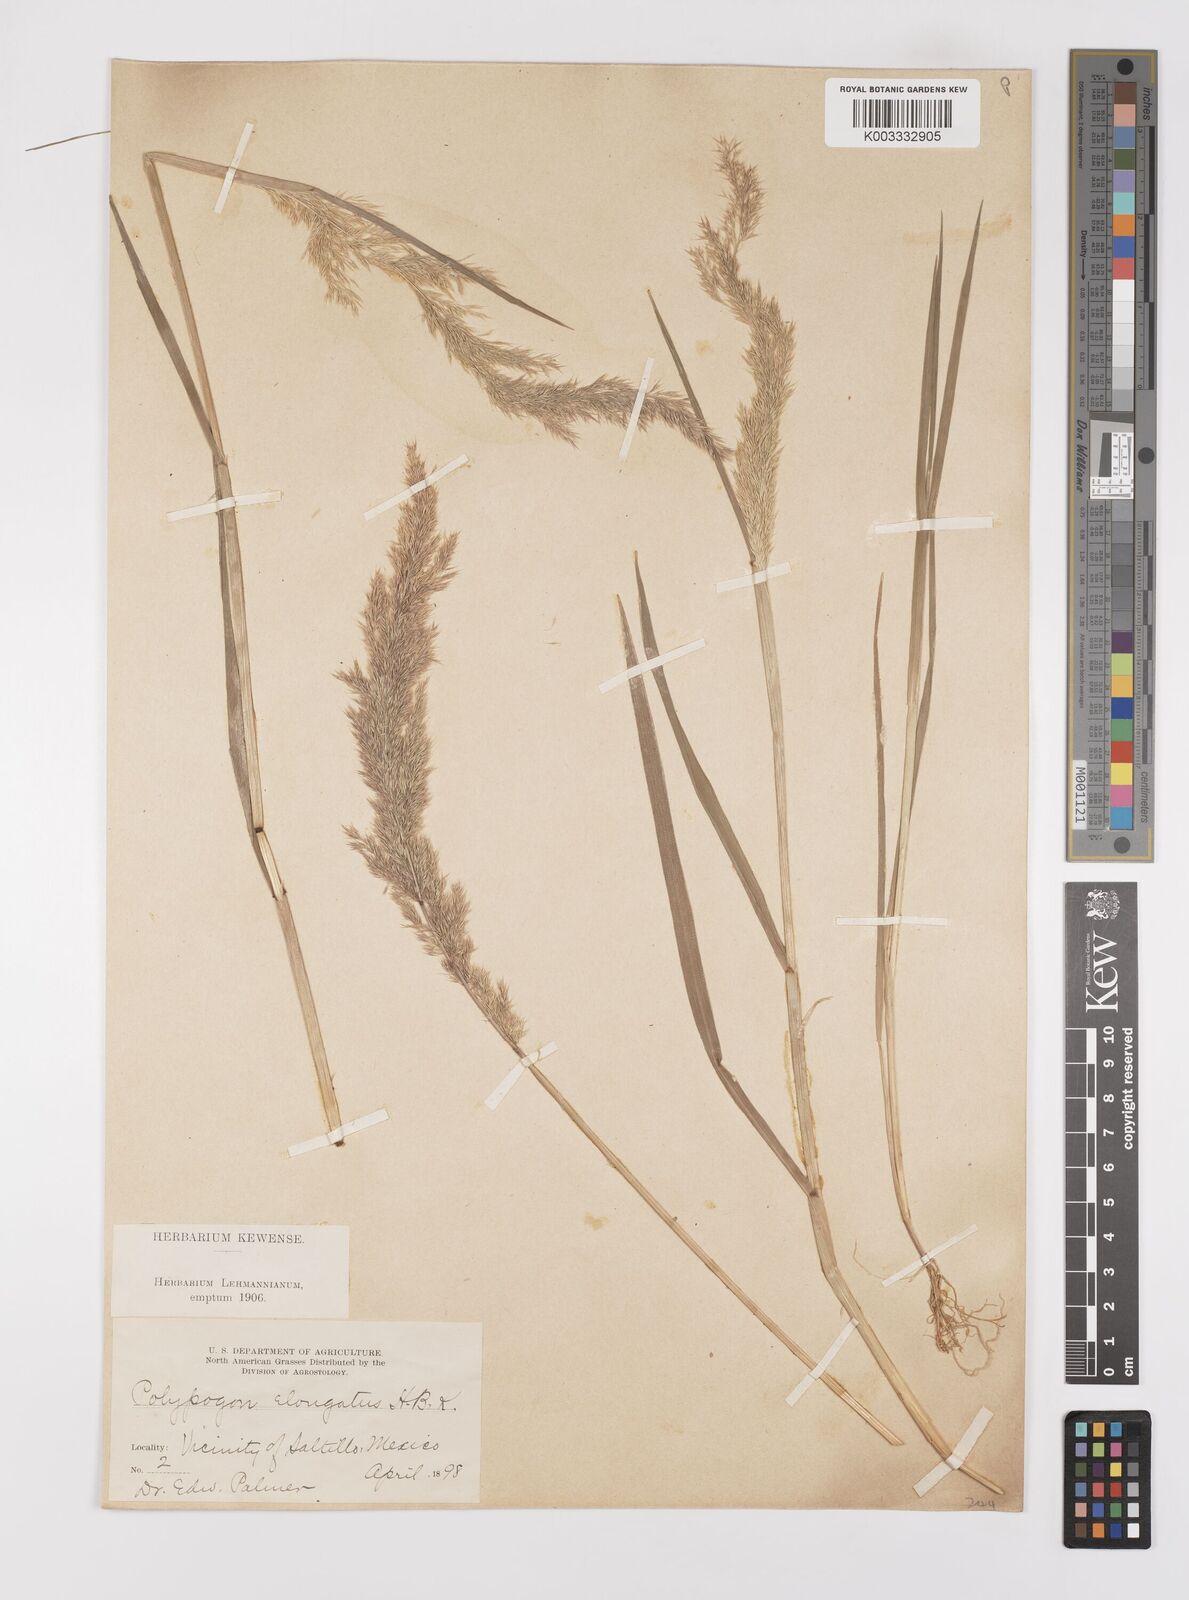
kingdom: Plantae
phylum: Tracheophyta
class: Liliopsida
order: Poales
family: Poaceae
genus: Polypogon
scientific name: Polypogon elongatus
